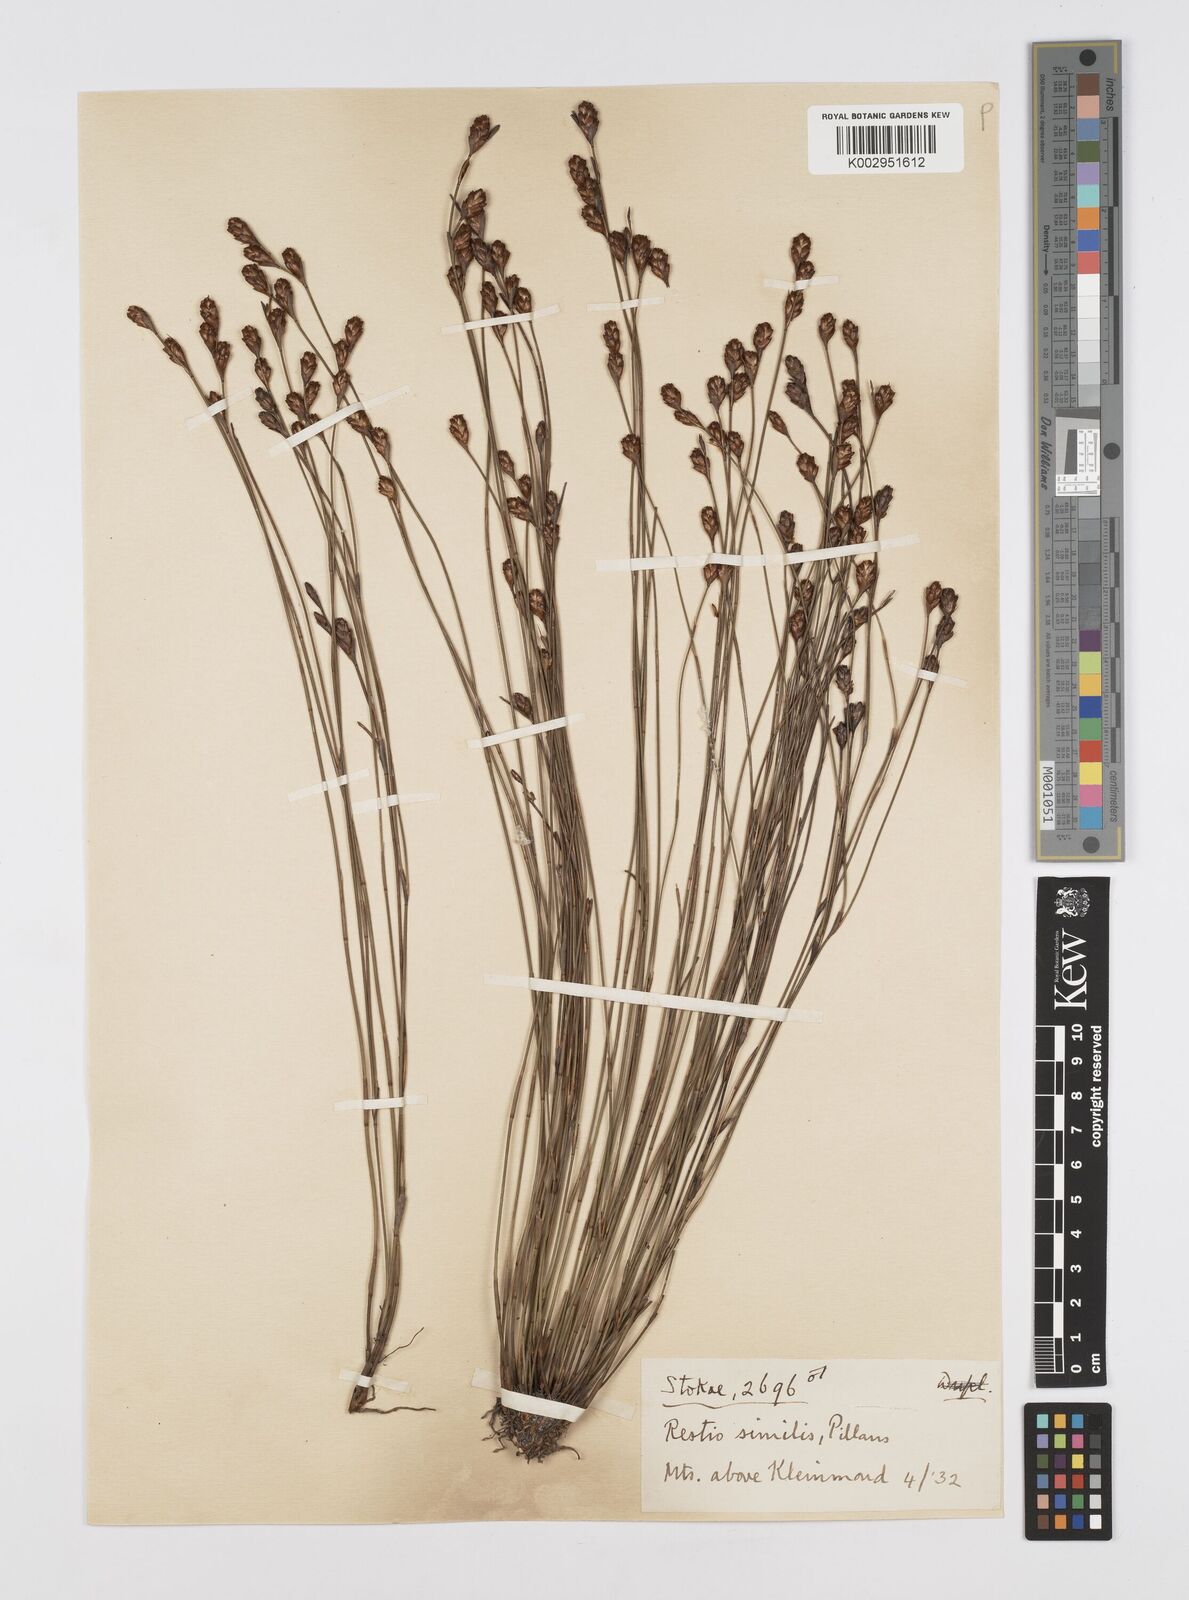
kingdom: Plantae
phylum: Tracheophyta
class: Liliopsida
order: Poales
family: Restionaceae
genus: Restio
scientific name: Restio similis
